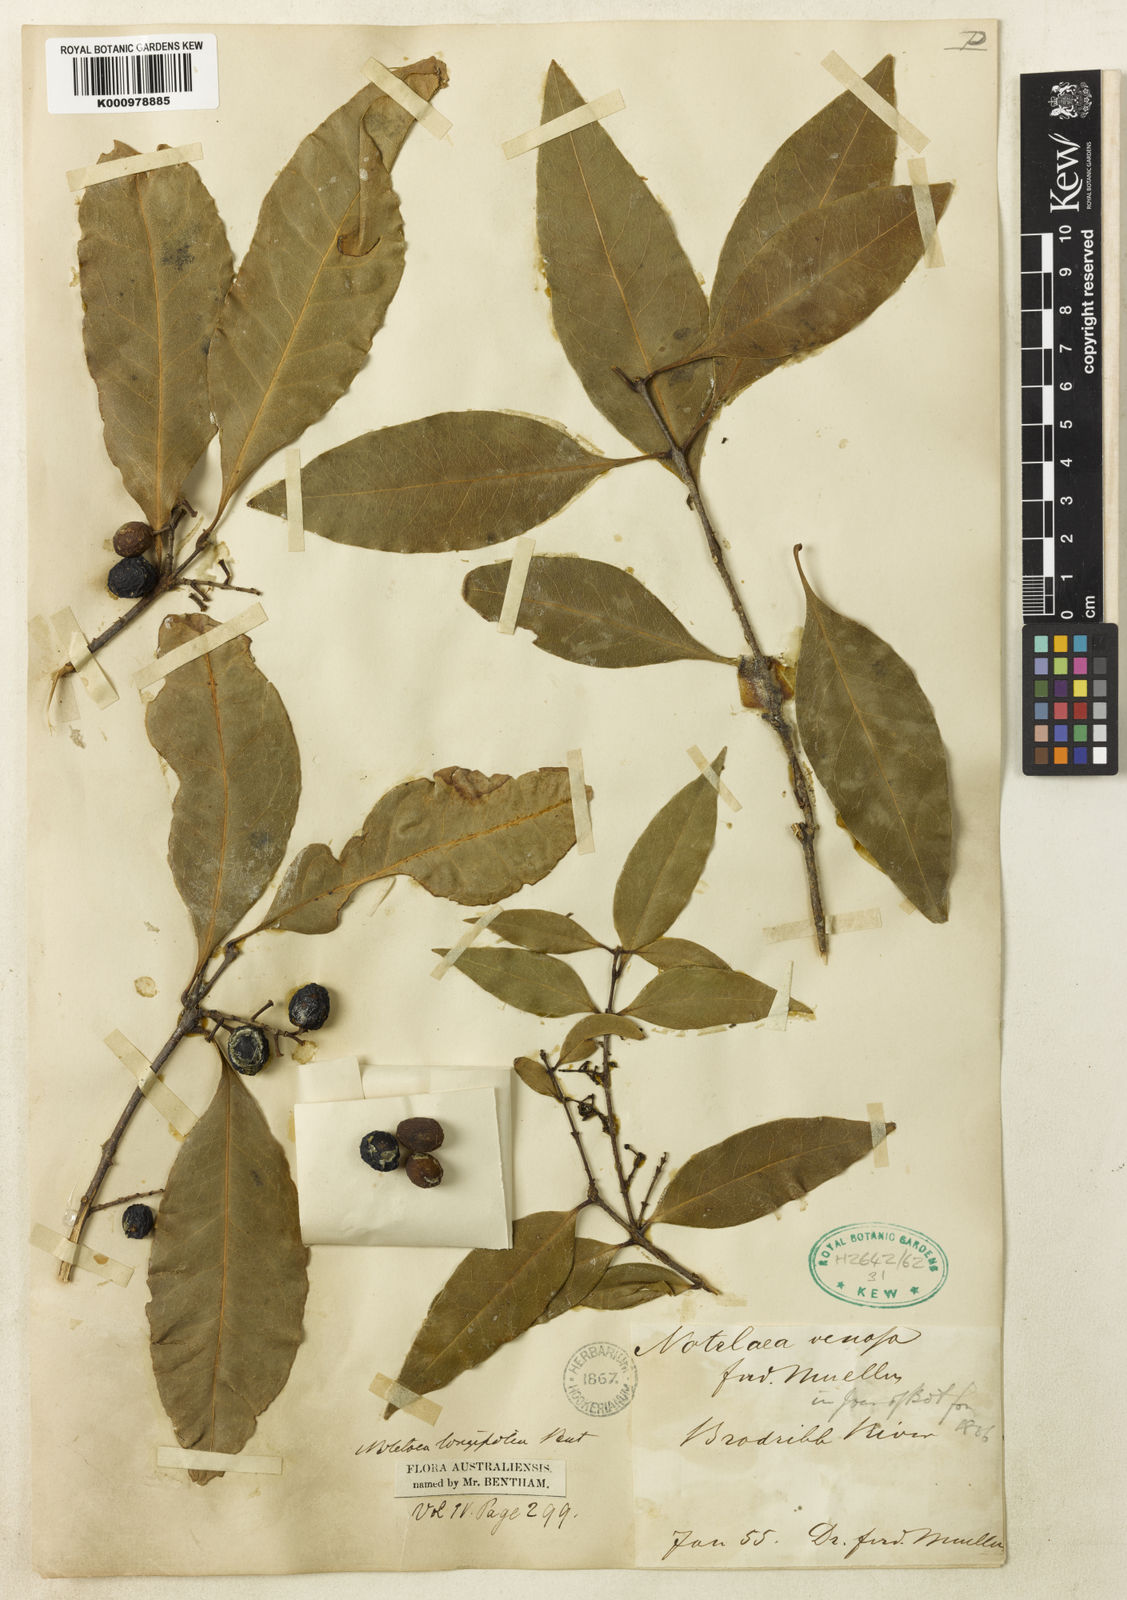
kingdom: Plantae
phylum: Tracheophyta
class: Magnoliopsida
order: Lamiales
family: Oleaceae
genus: Notelaea
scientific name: Notelaea venosa
